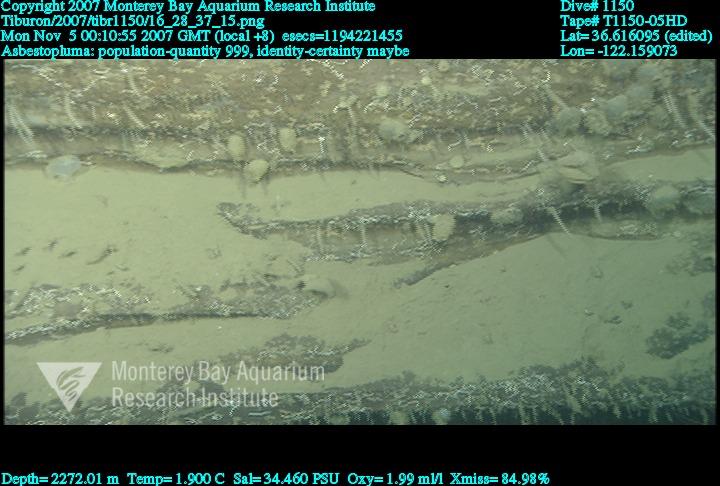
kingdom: Animalia
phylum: Porifera
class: Demospongiae
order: Poecilosclerida
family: Cladorhizidae
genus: Asbestopluma
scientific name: Asbestopluma
